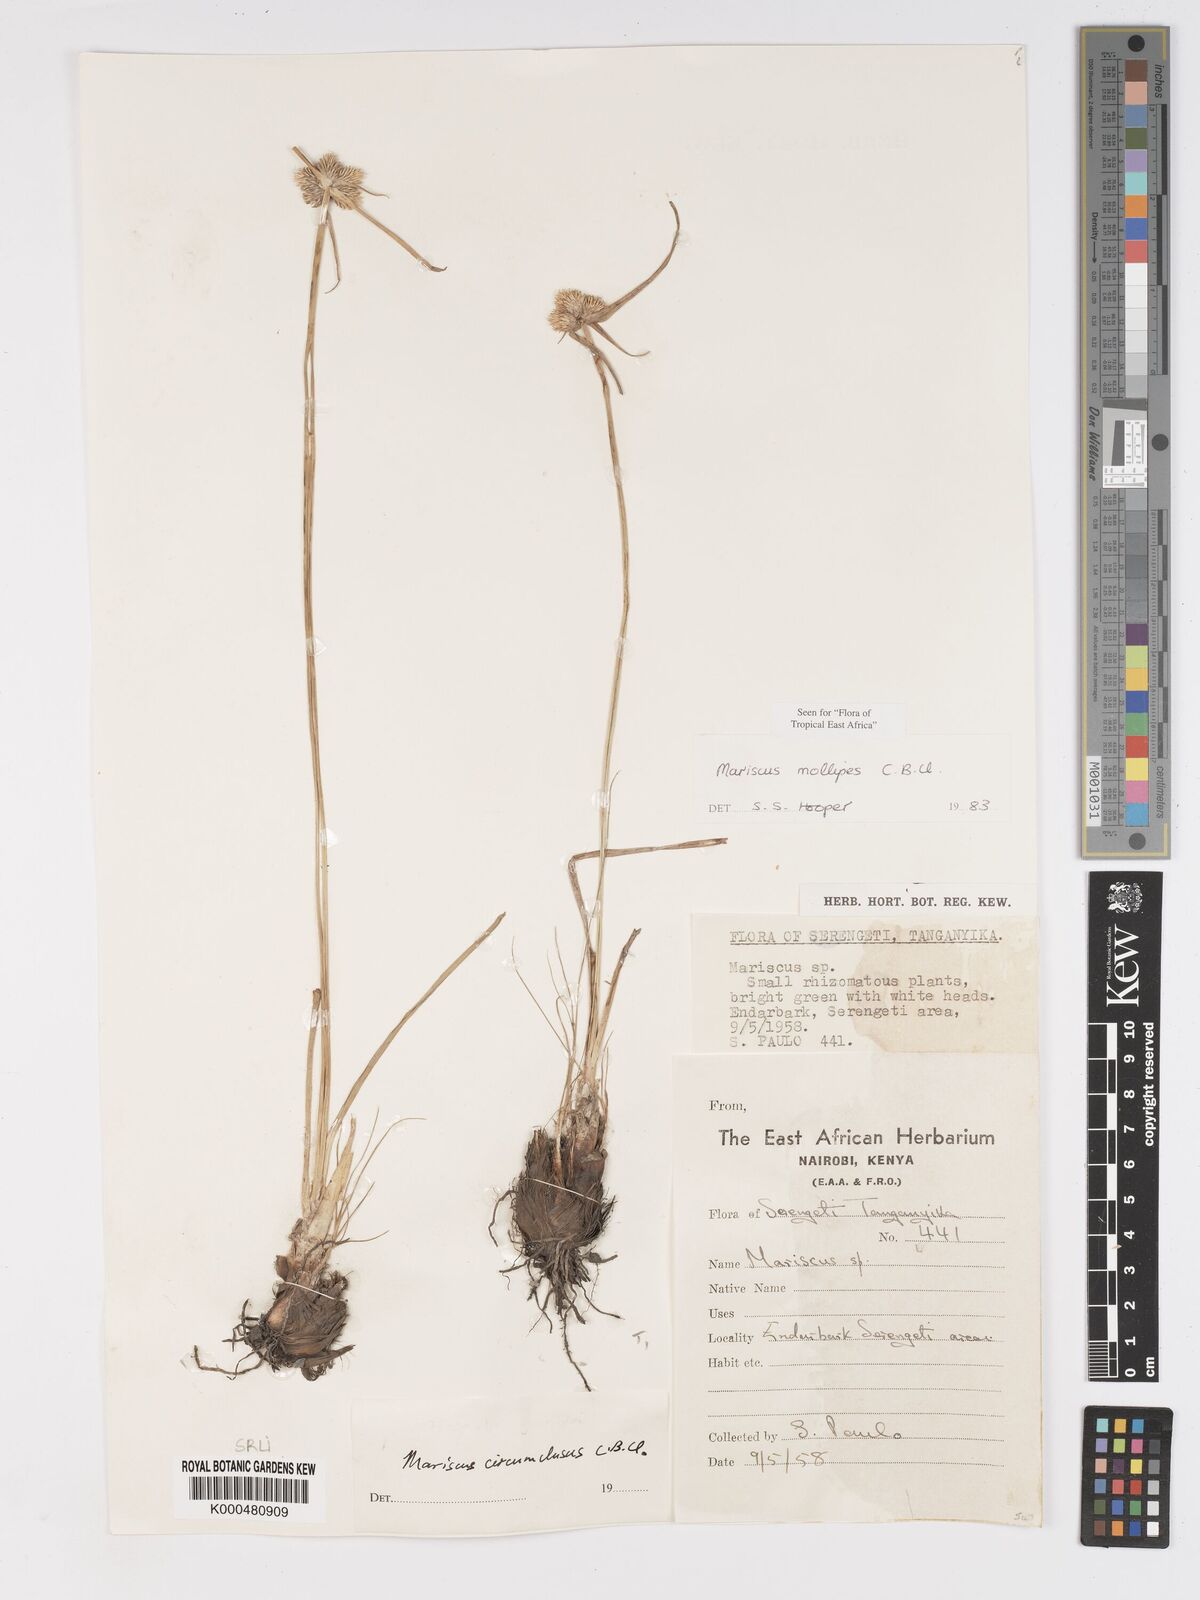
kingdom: Plantae
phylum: Tracheophyta
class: Liliopsida
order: Poales
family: Cyperaceae
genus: Cyperus
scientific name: Cyperus mollipes
